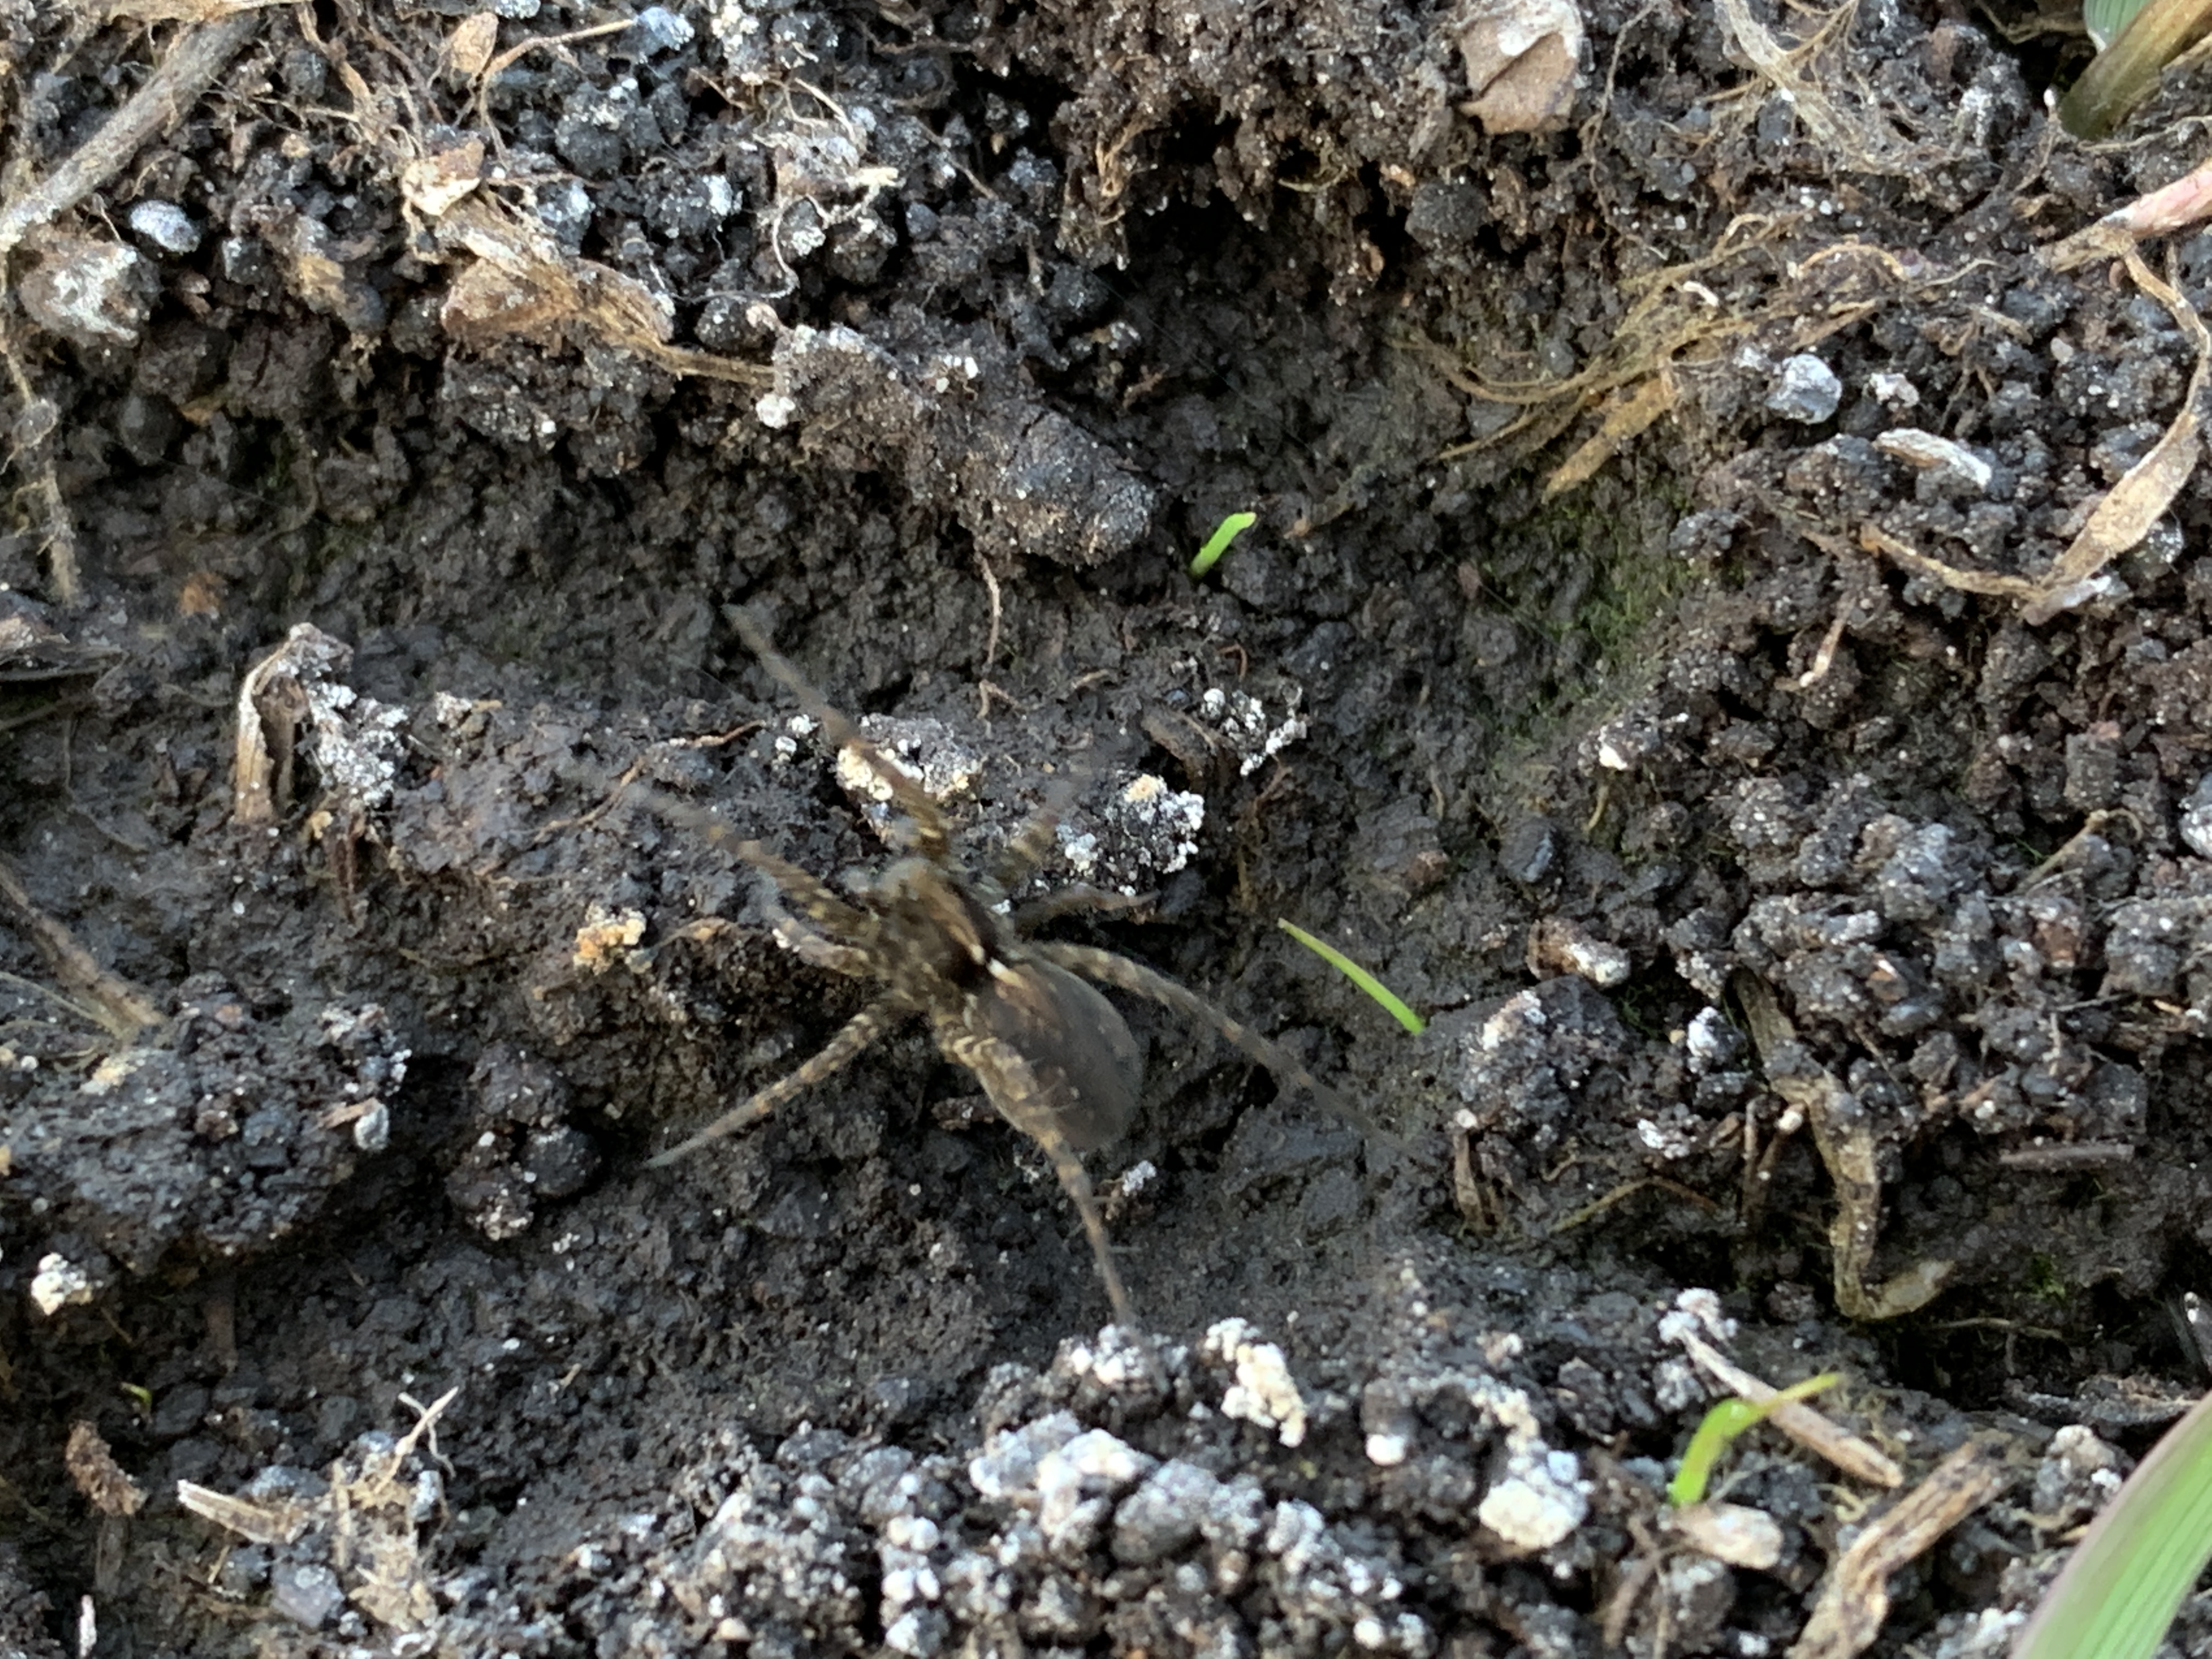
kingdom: Animalia
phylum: Arthropoda
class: Arachnida
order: Araneae
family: Lycosidae
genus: Pardosa
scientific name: Pardosa
